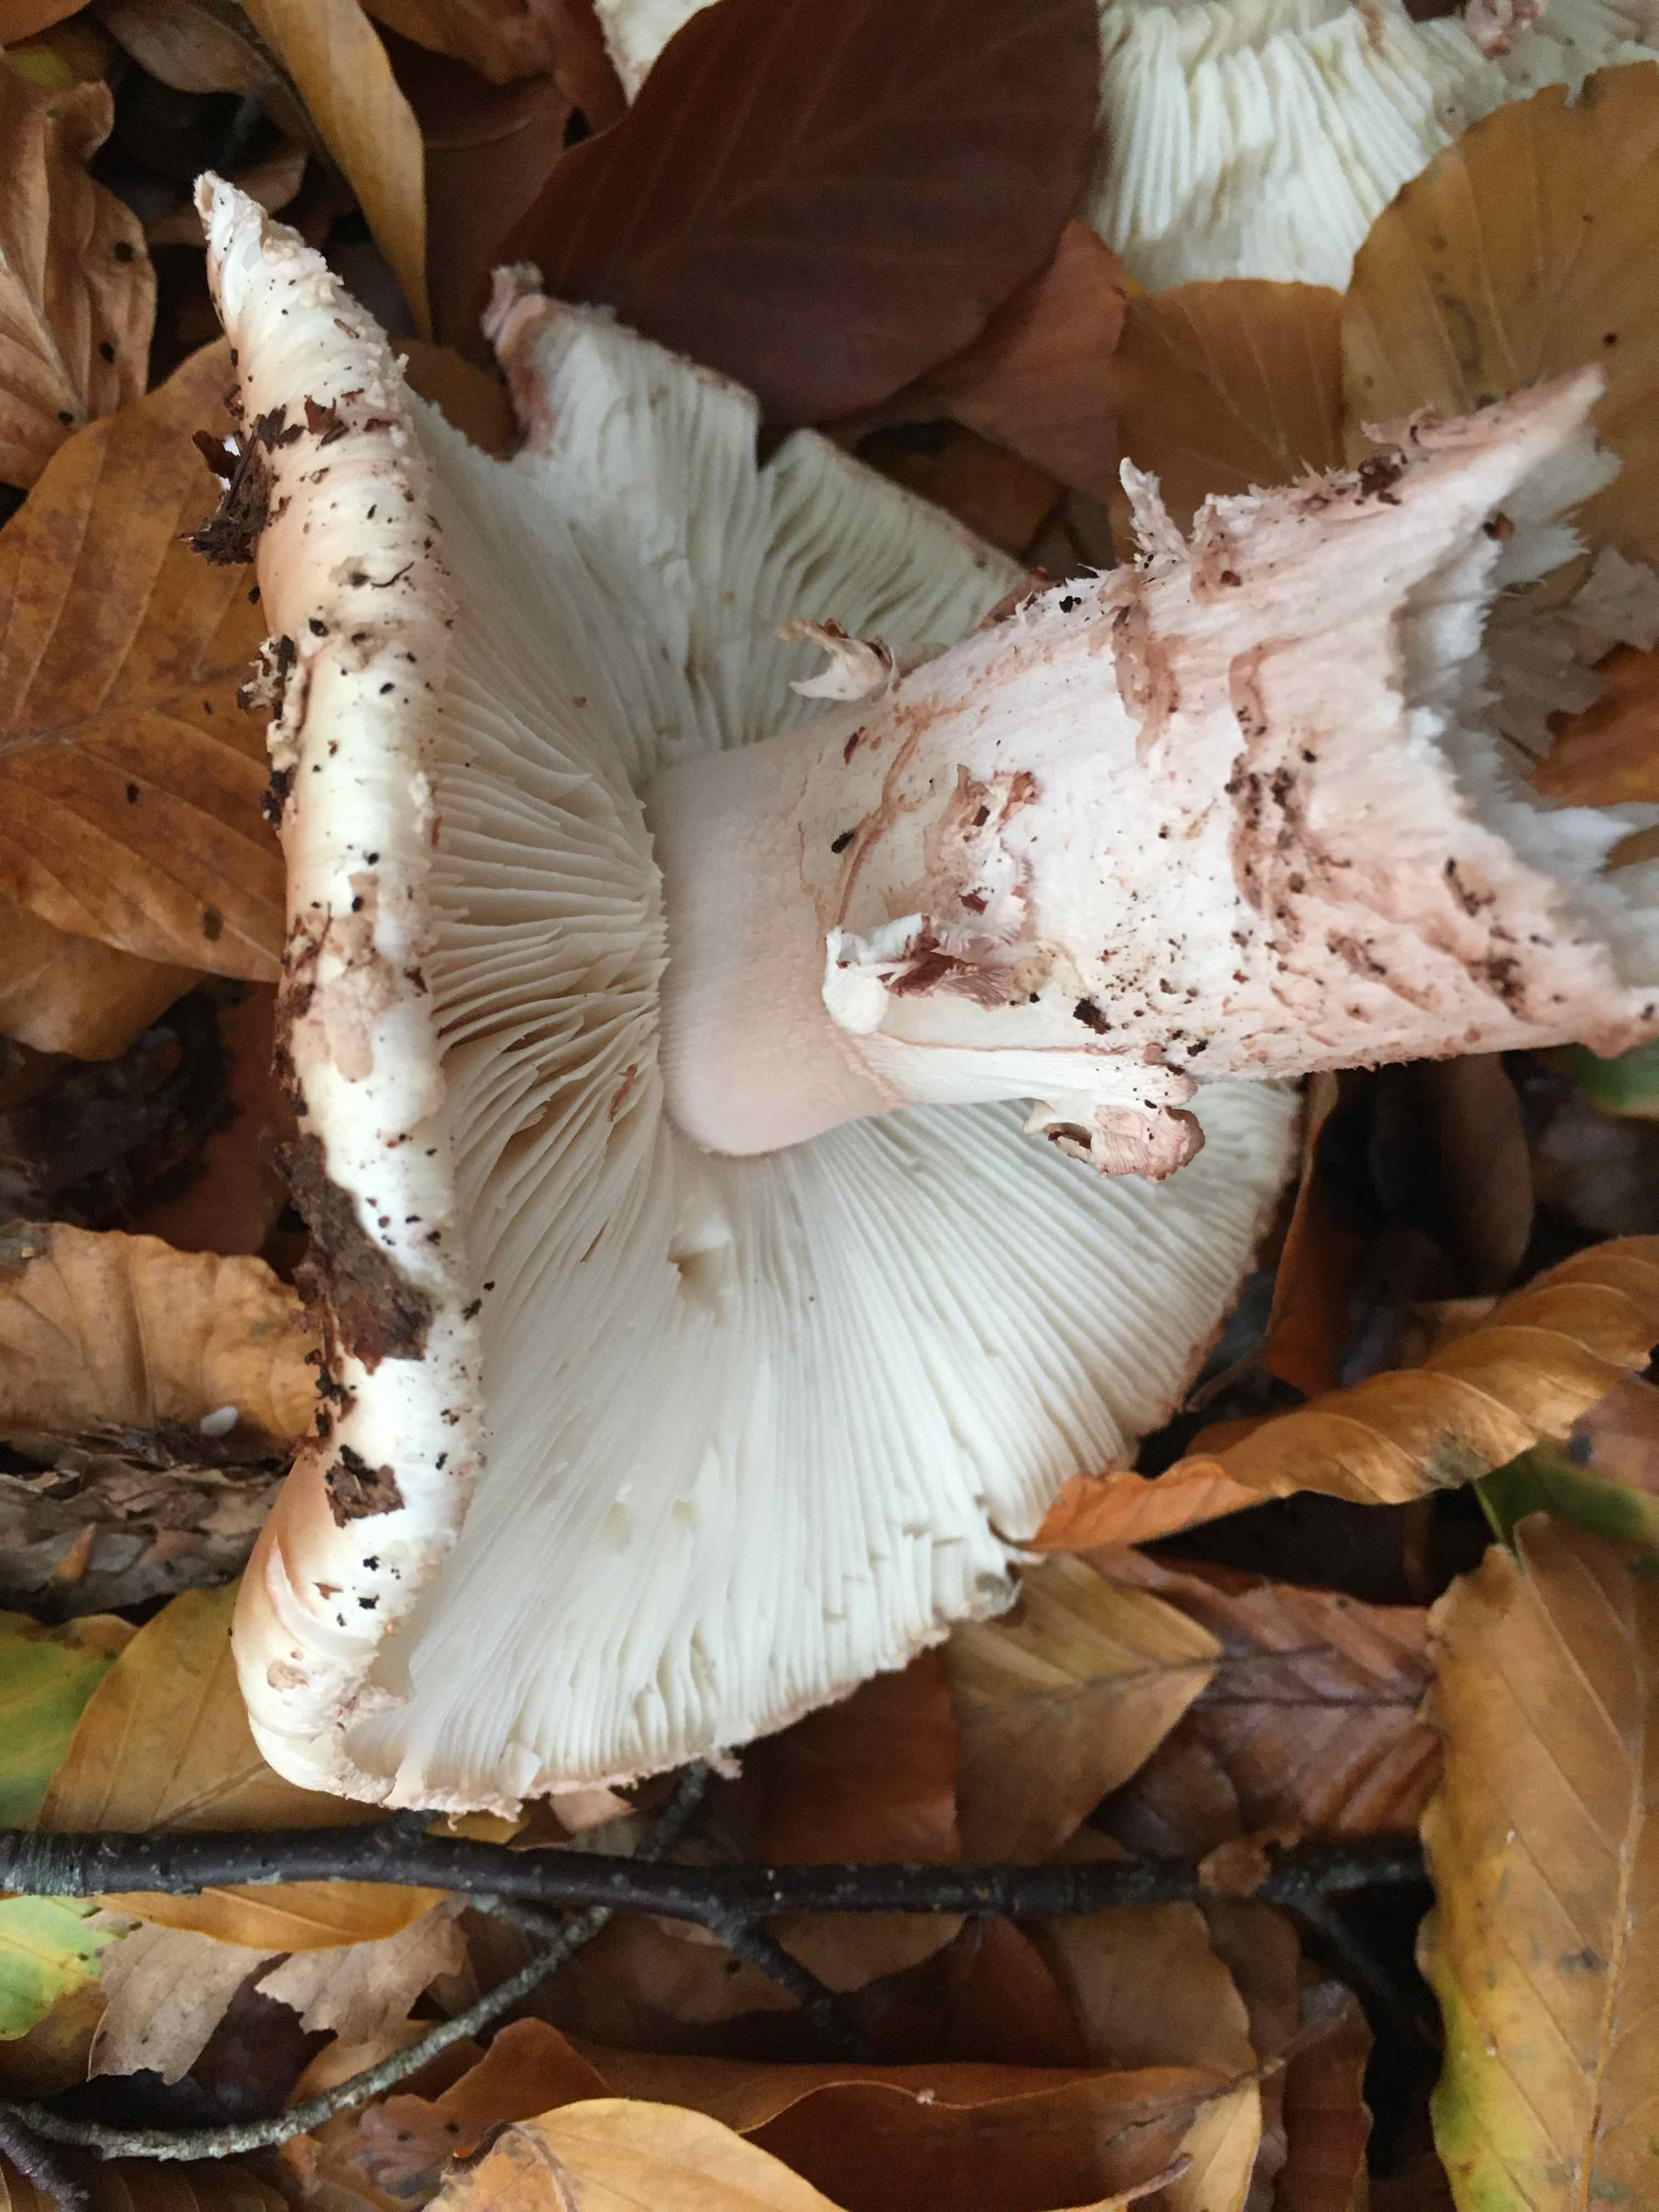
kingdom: Fungi
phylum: Basidiomycota
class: Agaricomycetes
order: Agaricales
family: Amanitaceae
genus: Amanita
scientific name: Amanita rubescens
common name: rødmende fluesvamp
